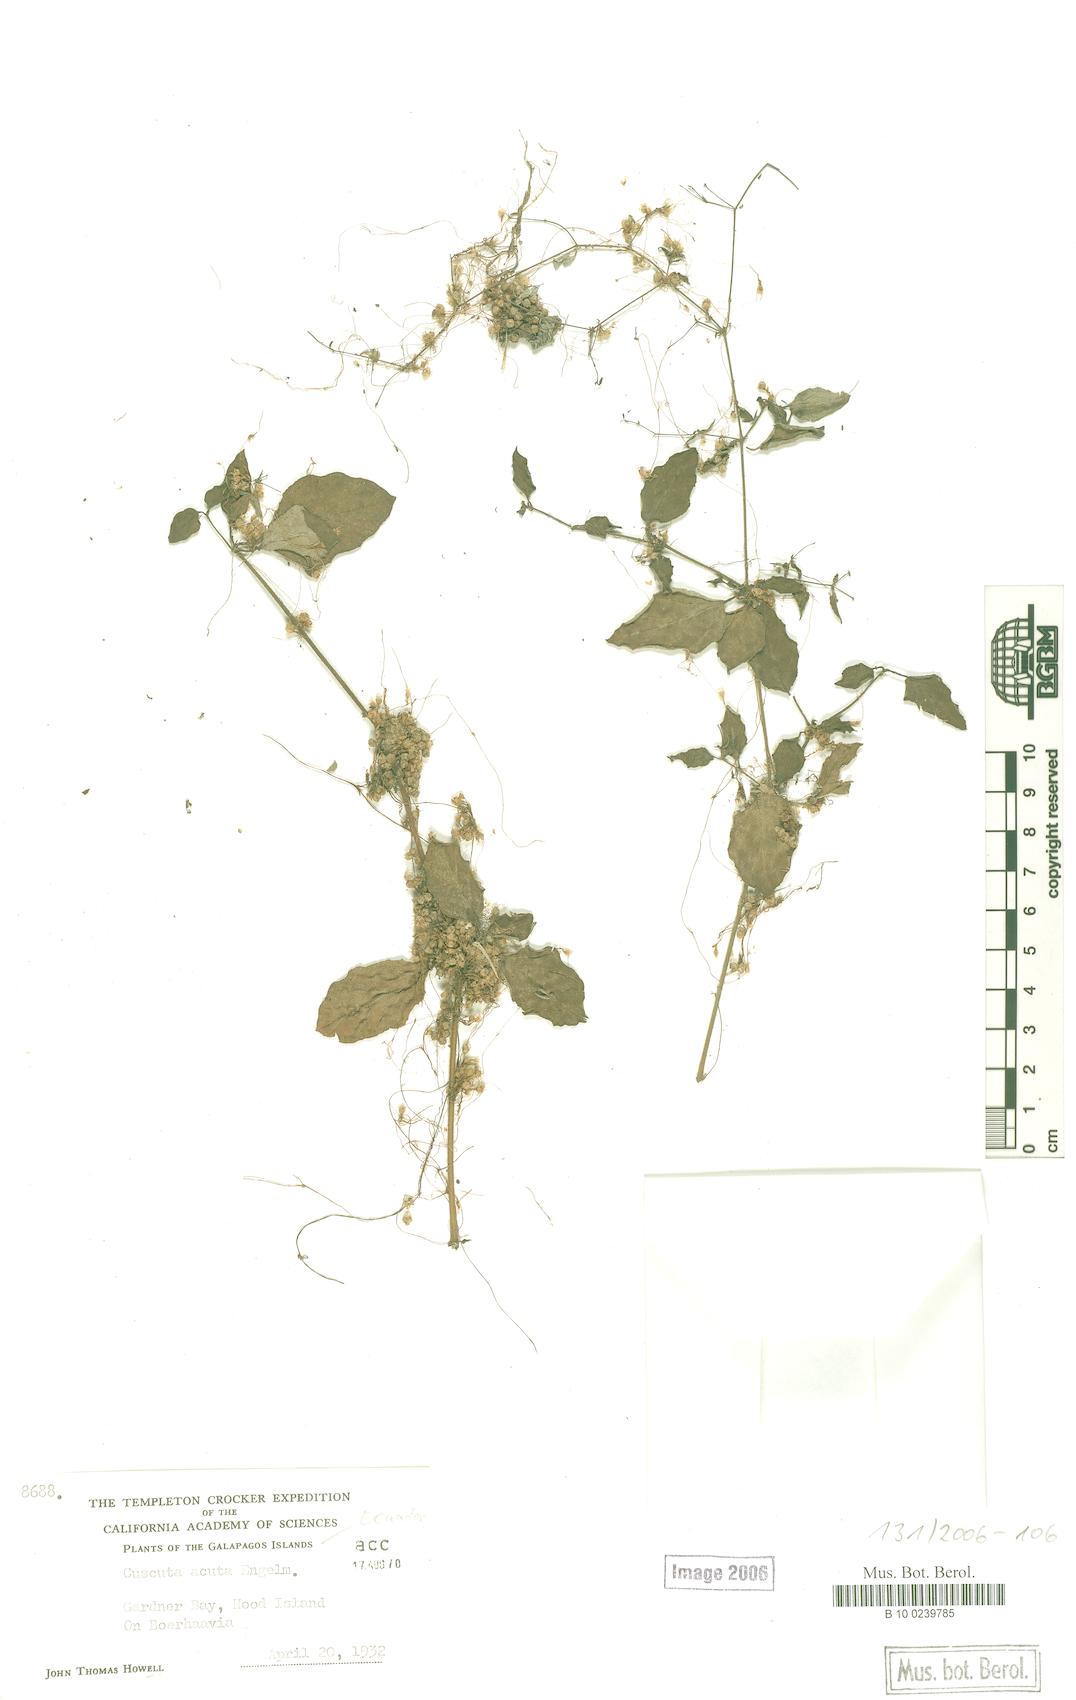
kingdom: Plantae
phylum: Tracheophyta
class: Magnoliopsida
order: Solanales
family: Convolvulaceae
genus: Cuscuta
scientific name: Cuscuta acuta
